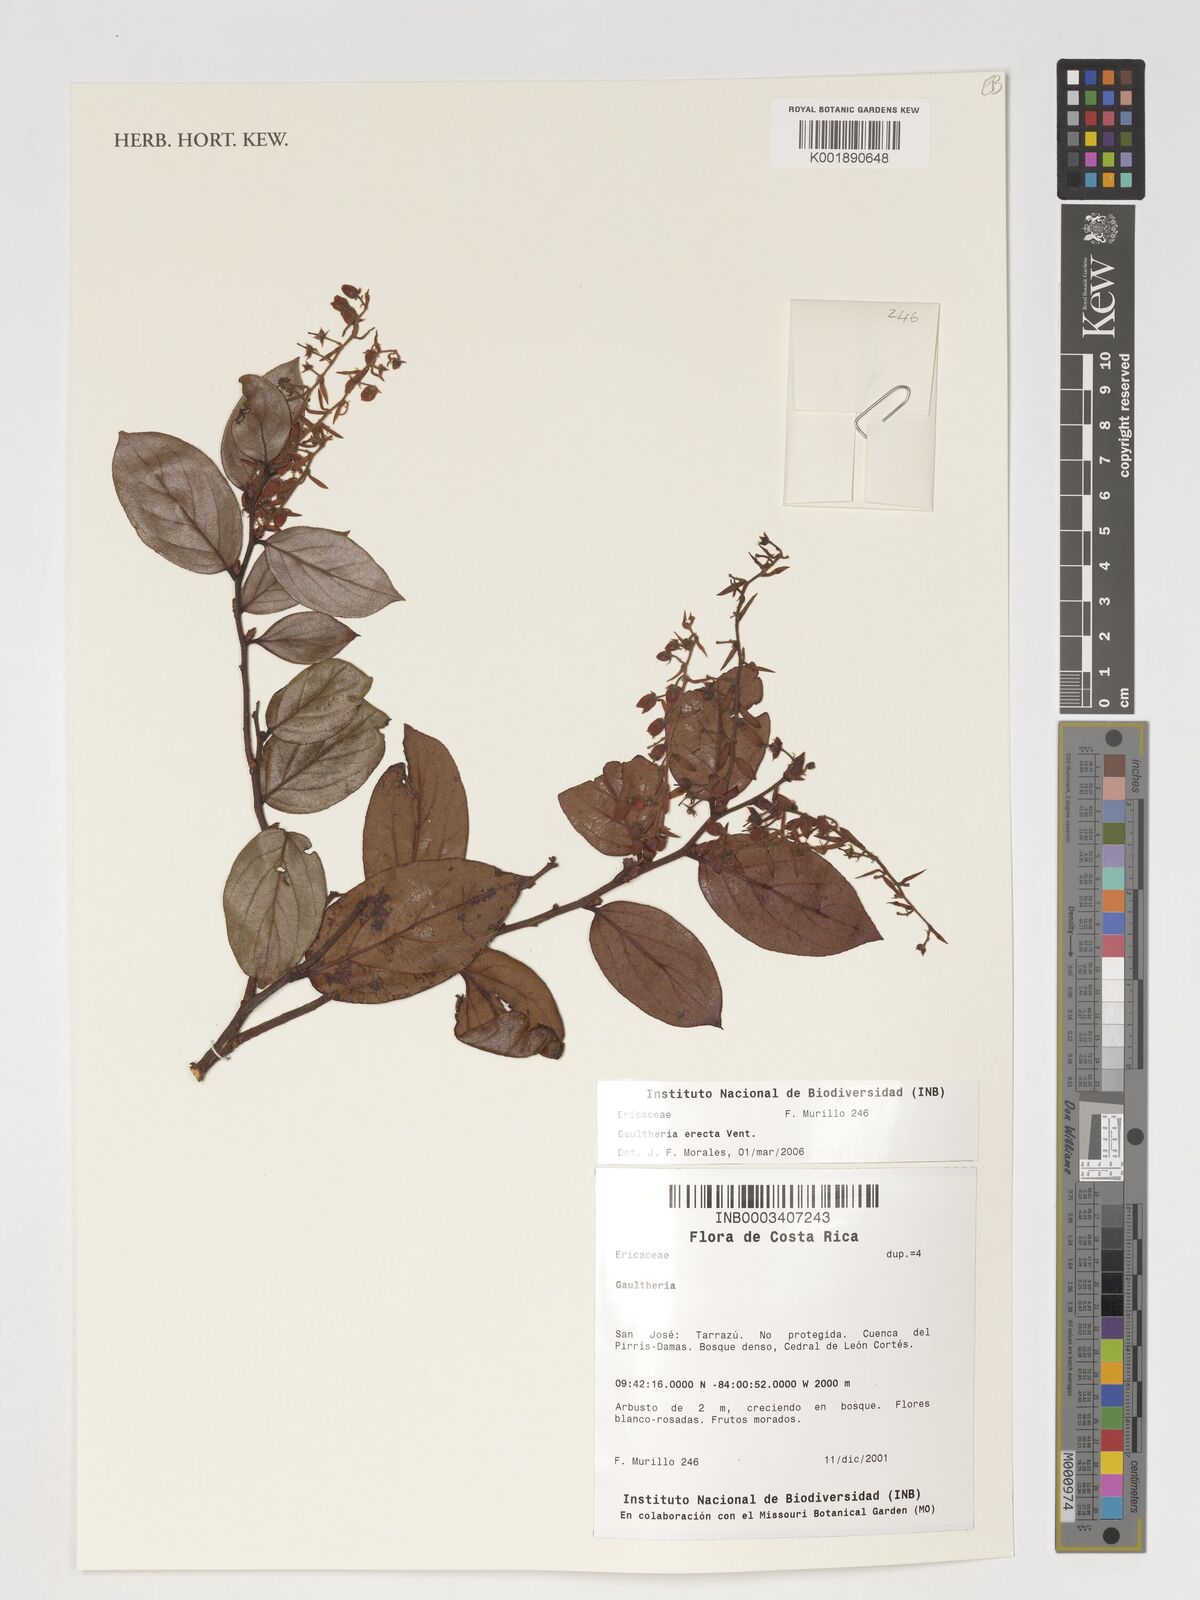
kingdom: Plantae
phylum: Tracheophyta
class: Magnoliopsida
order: Ericales
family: Ericaceae
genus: Gaultheria
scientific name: Gaultheria
